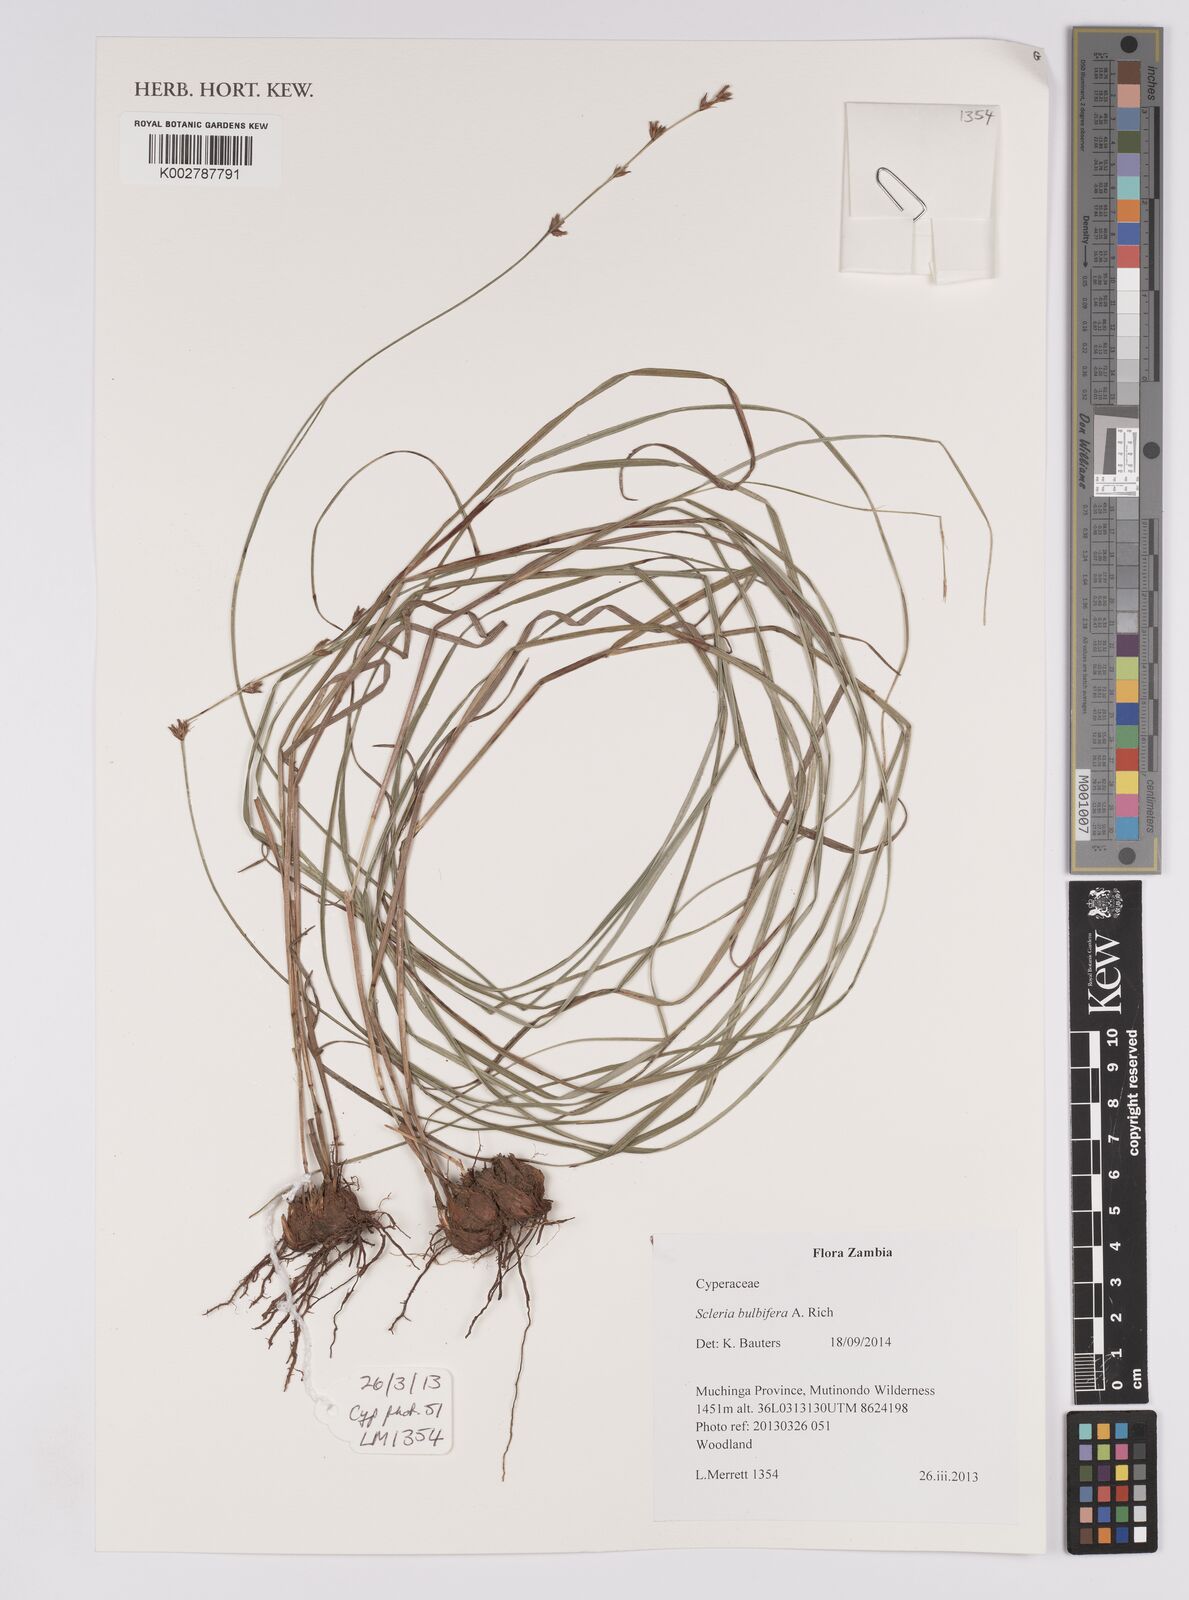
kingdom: Plantae
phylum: Tracheophyta
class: Liliopsida
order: Poales
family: Cyperaceae
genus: Scleria
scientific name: Scleria bulbifera
